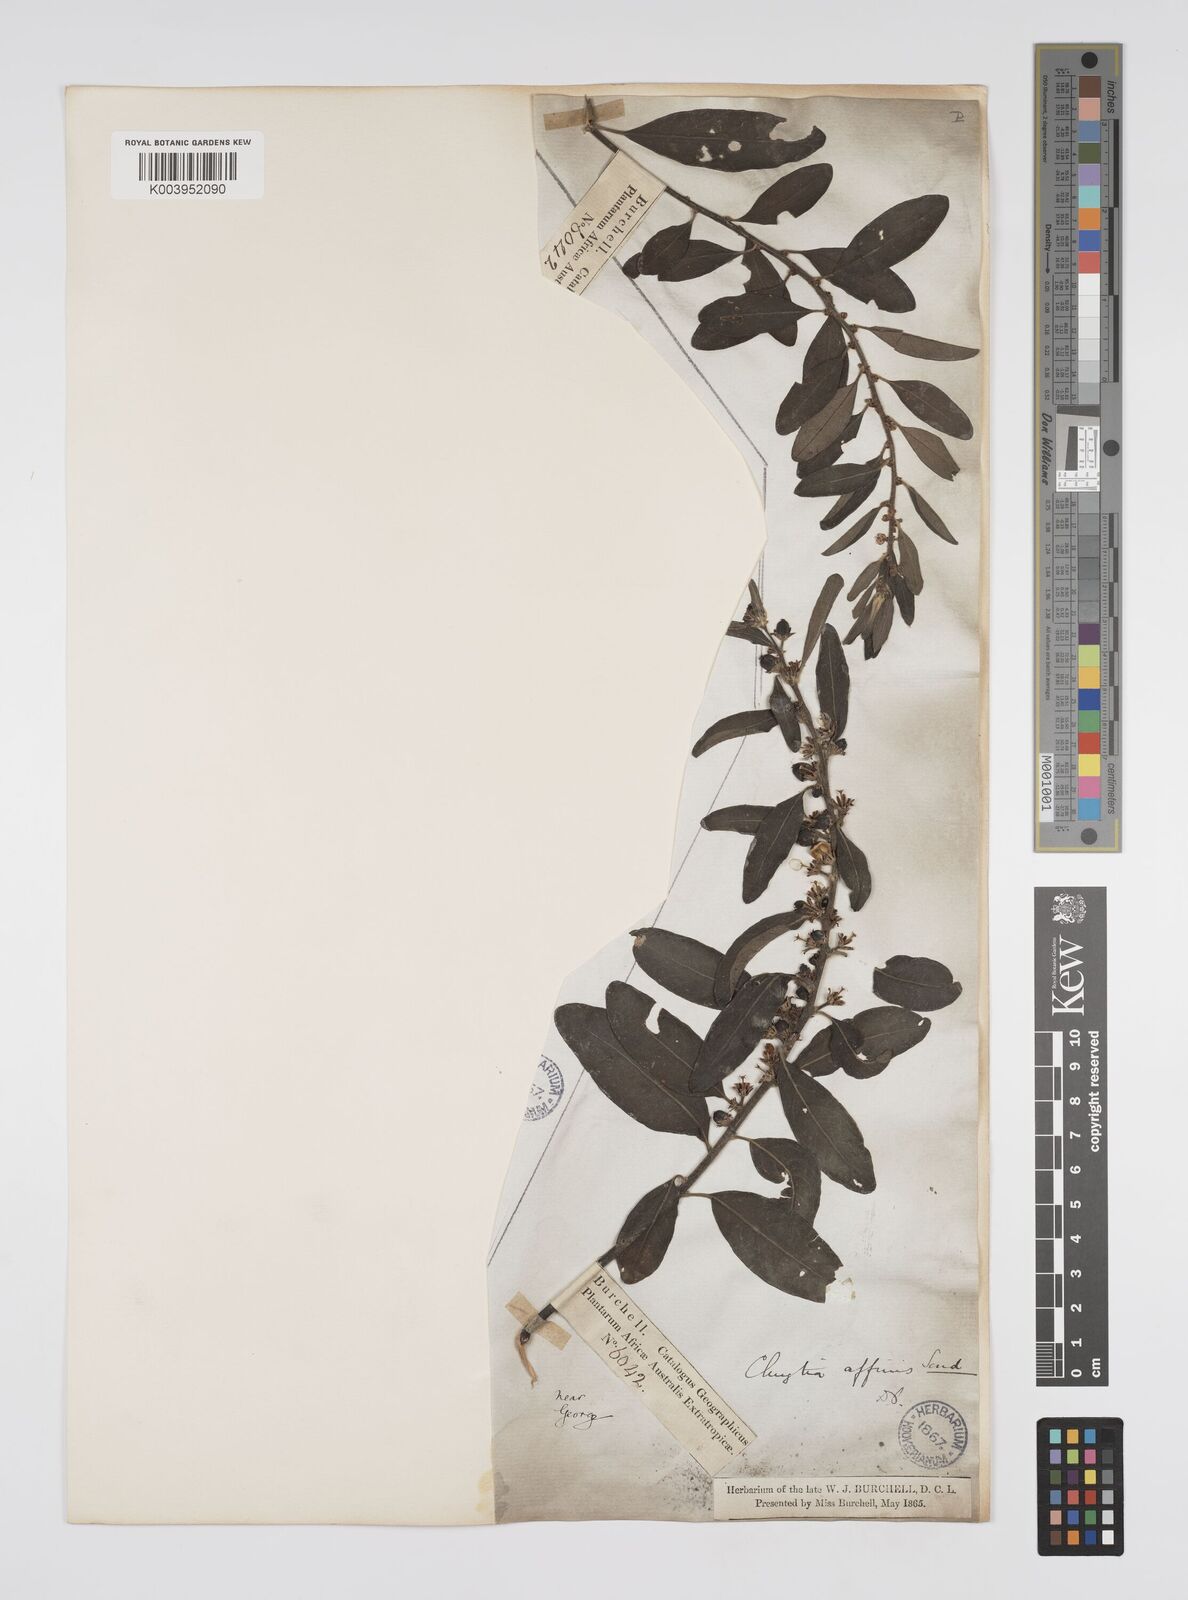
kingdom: Plantae
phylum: Tracheophyta
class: Magnoliopsida
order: Malpighiales
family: Peraceae
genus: Clutia
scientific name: Clutia affinis
